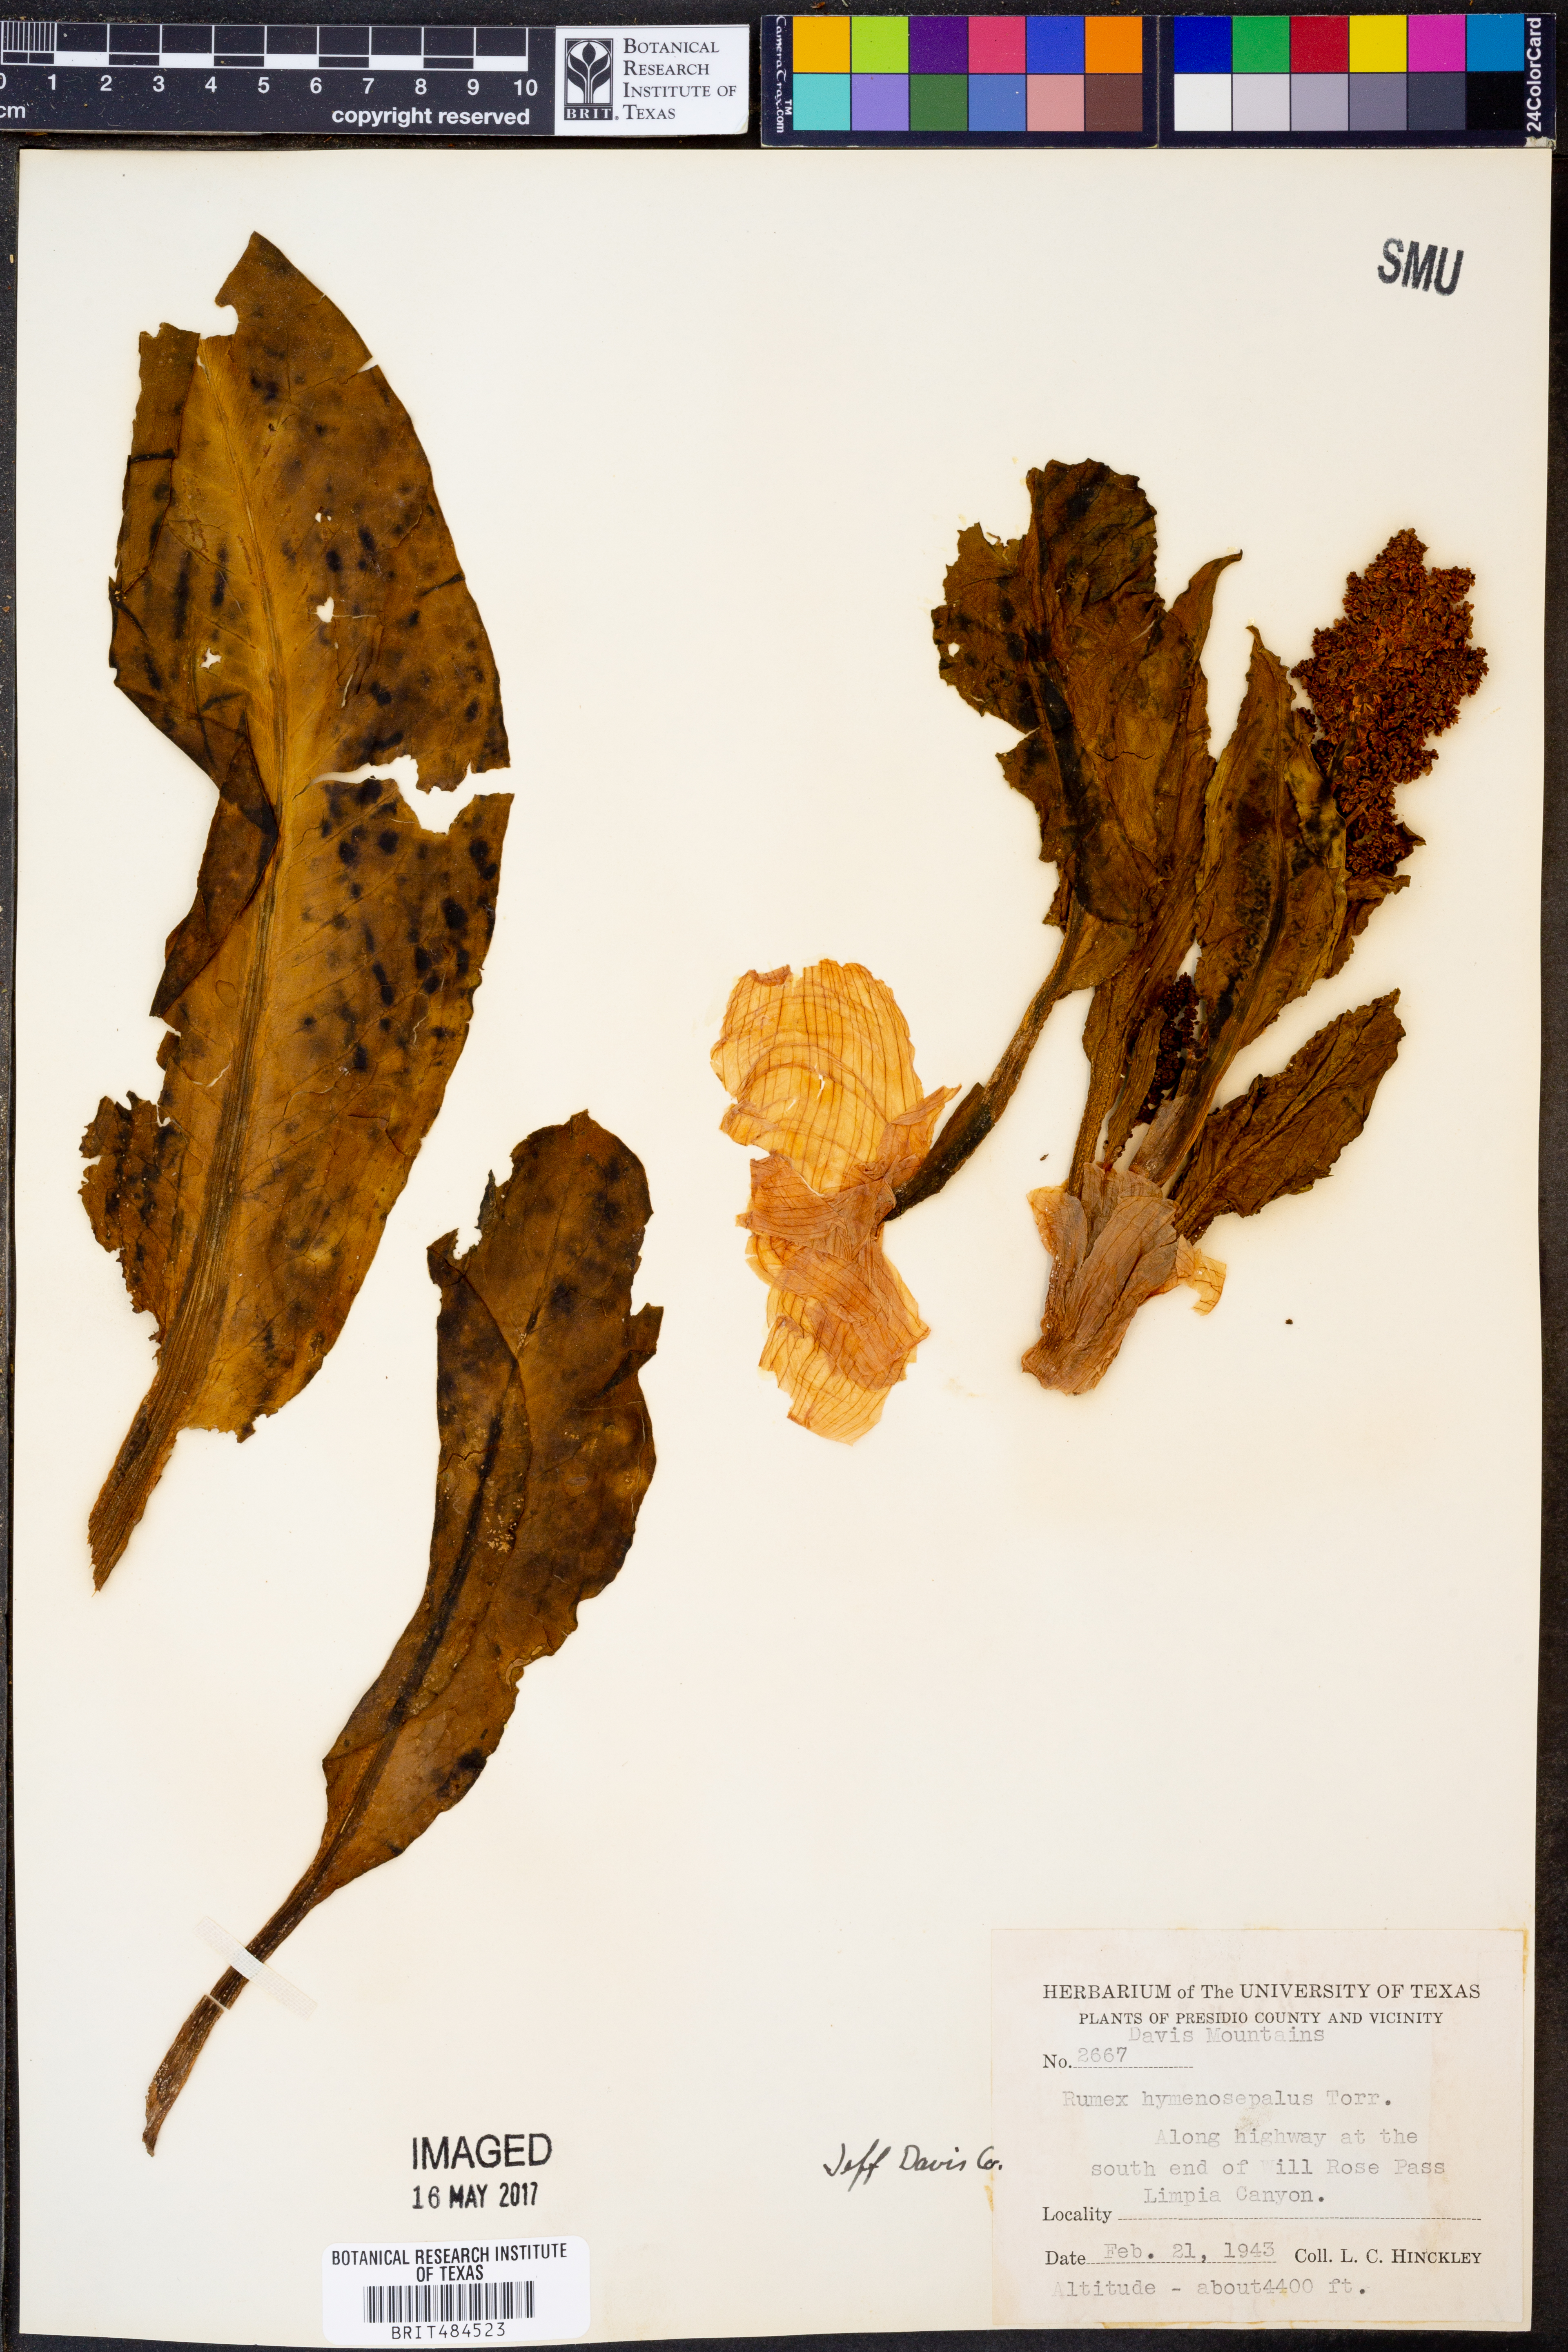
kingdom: Plantae
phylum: Tracheophyta
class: Magnoliopsida
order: Caryophyllales
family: Polygonaceae
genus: Rumex
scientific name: Rumex hymenosepalus
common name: Ganagra
